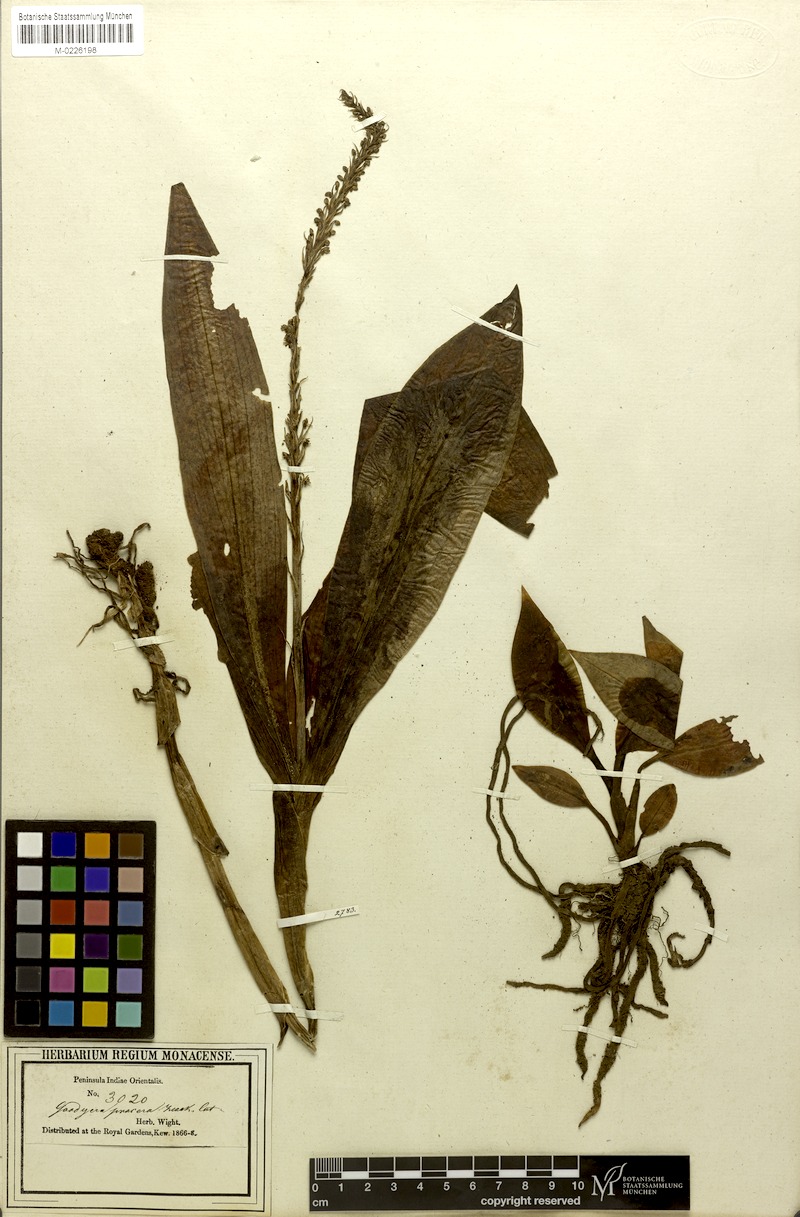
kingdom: Plantae
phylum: Tracheophyta
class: Liliopsida
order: Asparagales
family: Orchidaceae
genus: Goodyera
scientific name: Goodyera procera
